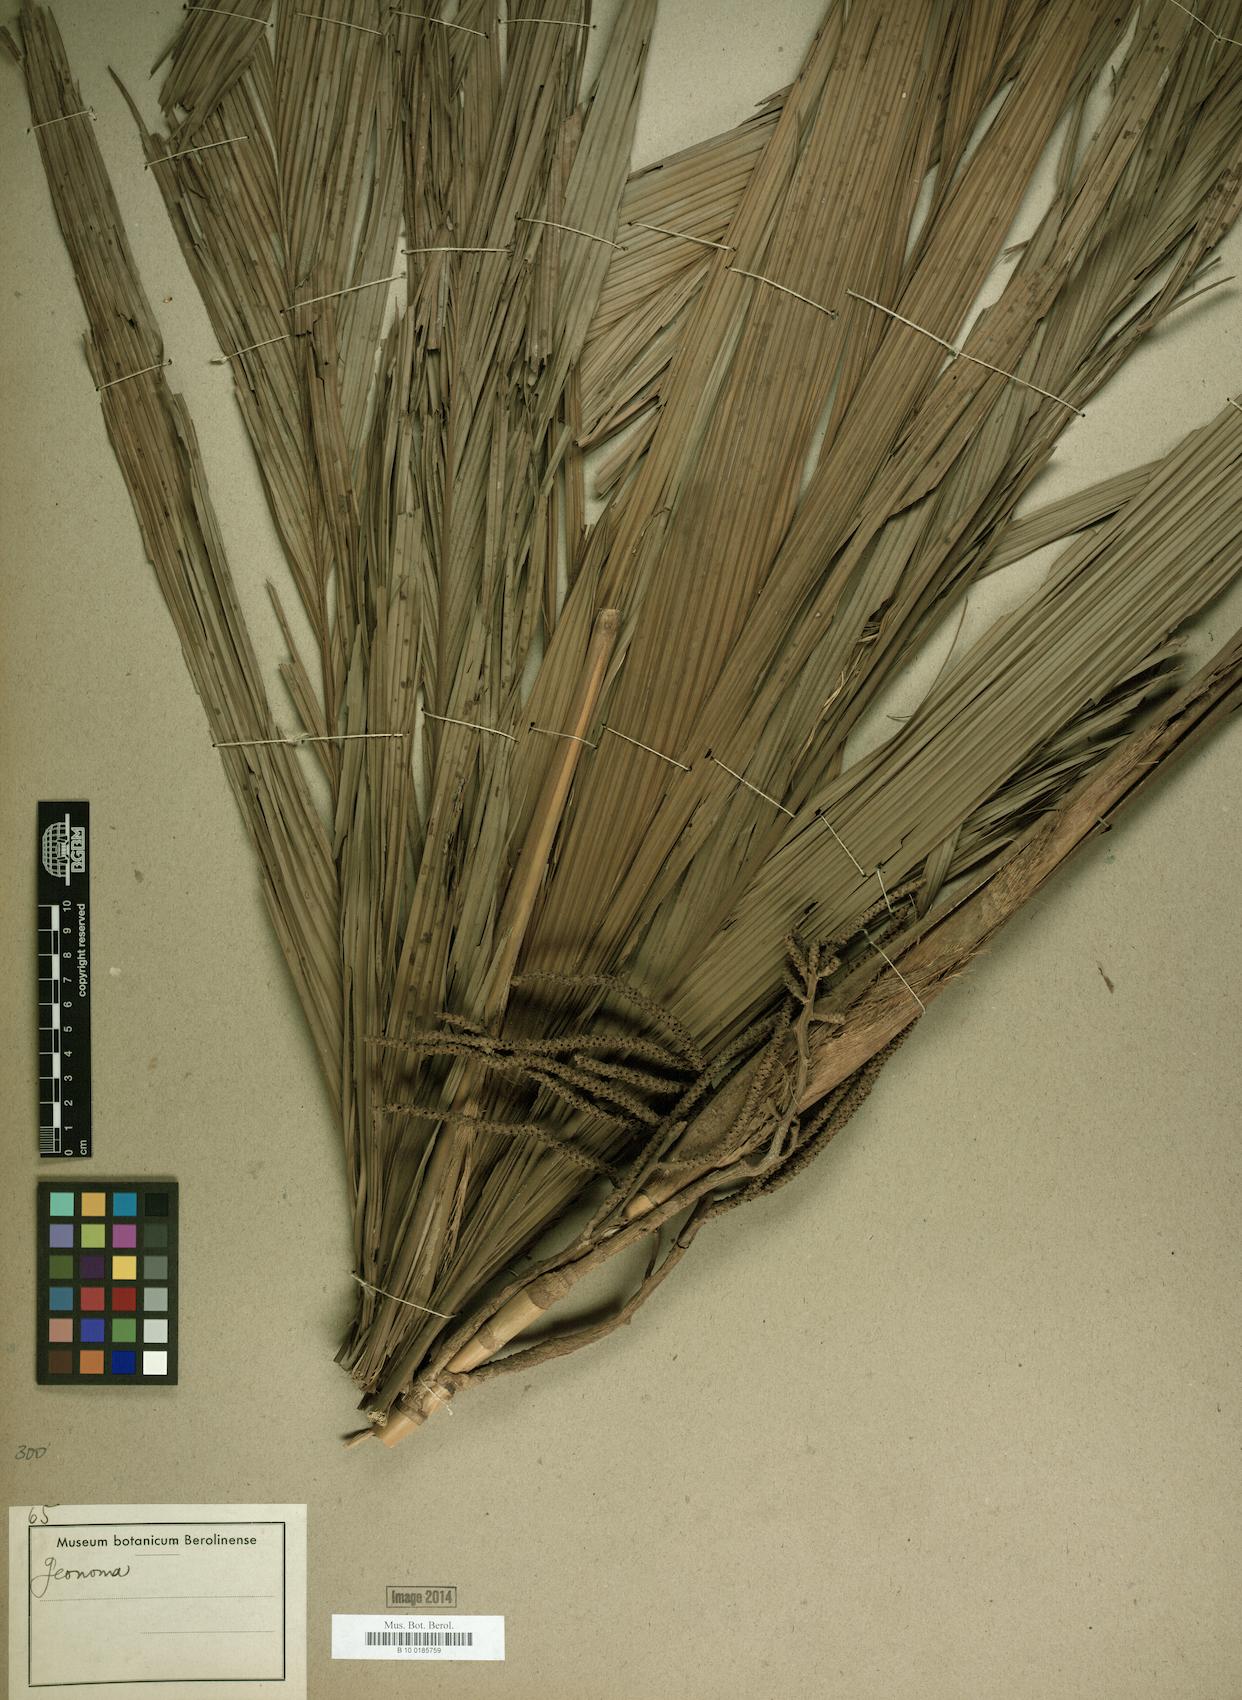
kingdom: Plantae
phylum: Tracheophyta
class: Liliopsida
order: Arecales
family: Arecaceae
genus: Geonoma
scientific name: Geonoma
